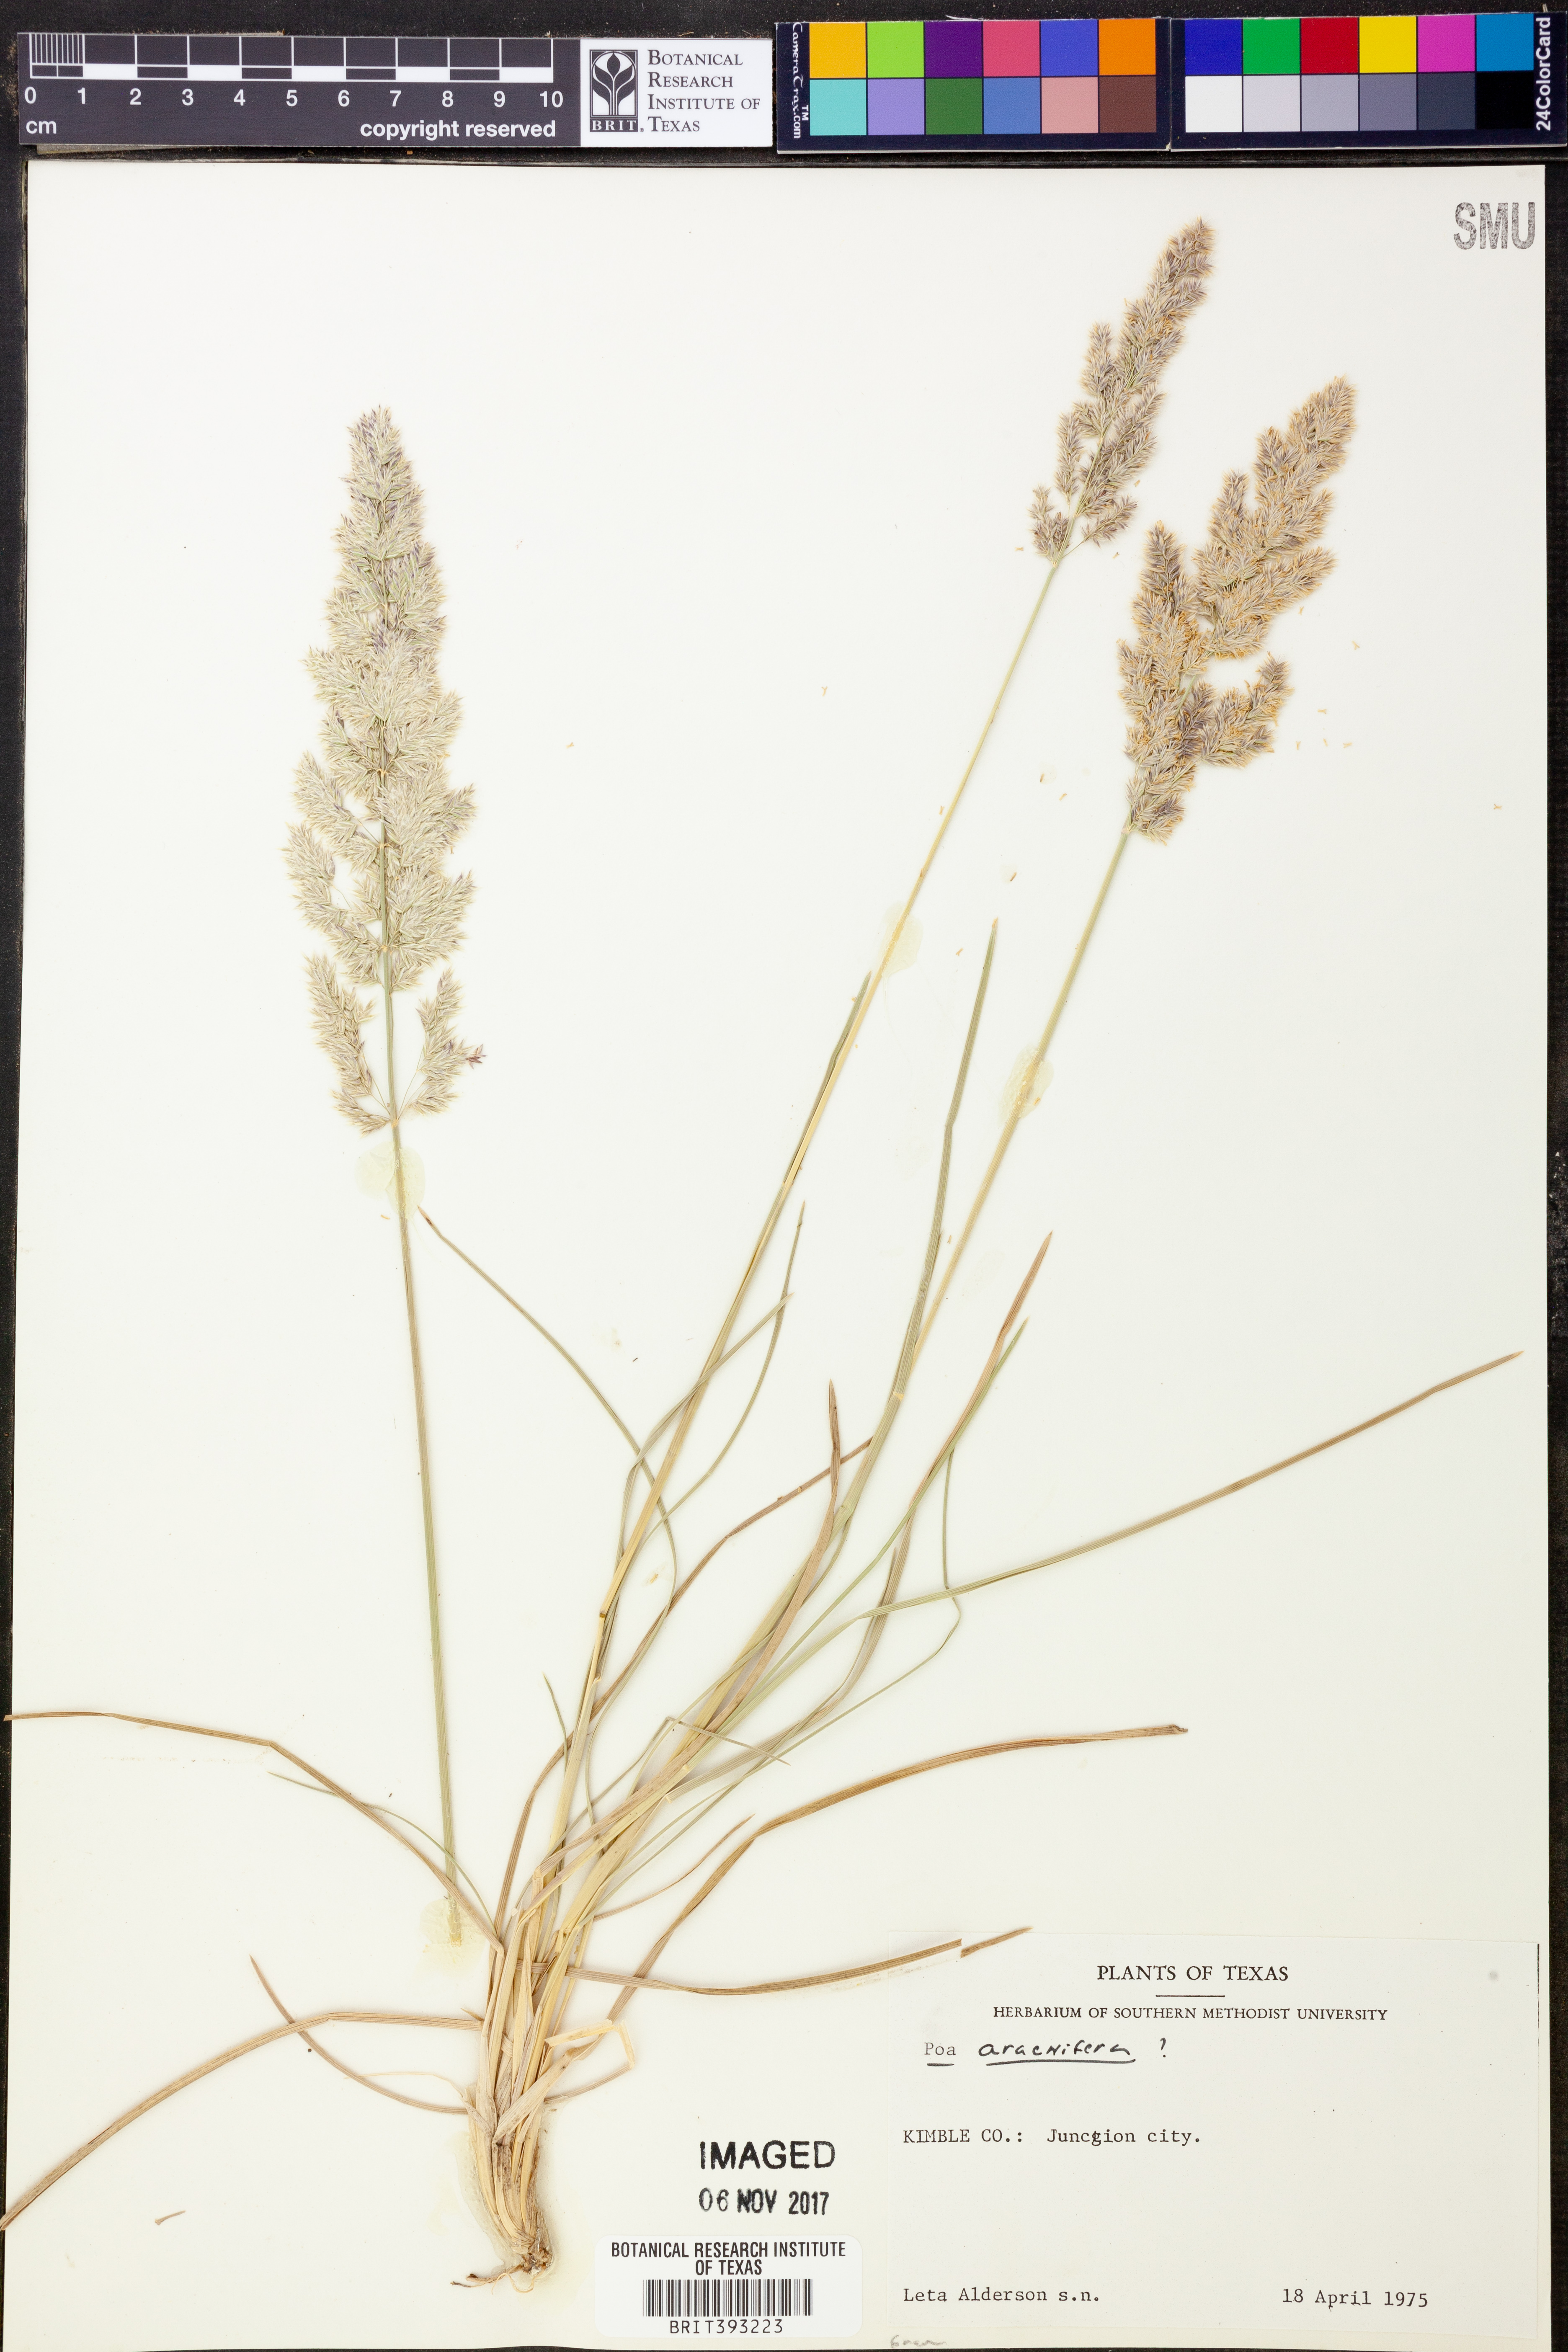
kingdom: Plantae
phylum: Tracheophyta
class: Liliopsida
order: Poales
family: Poaceae
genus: Poa
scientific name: Poa arachnifera
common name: Texas bluegrass
